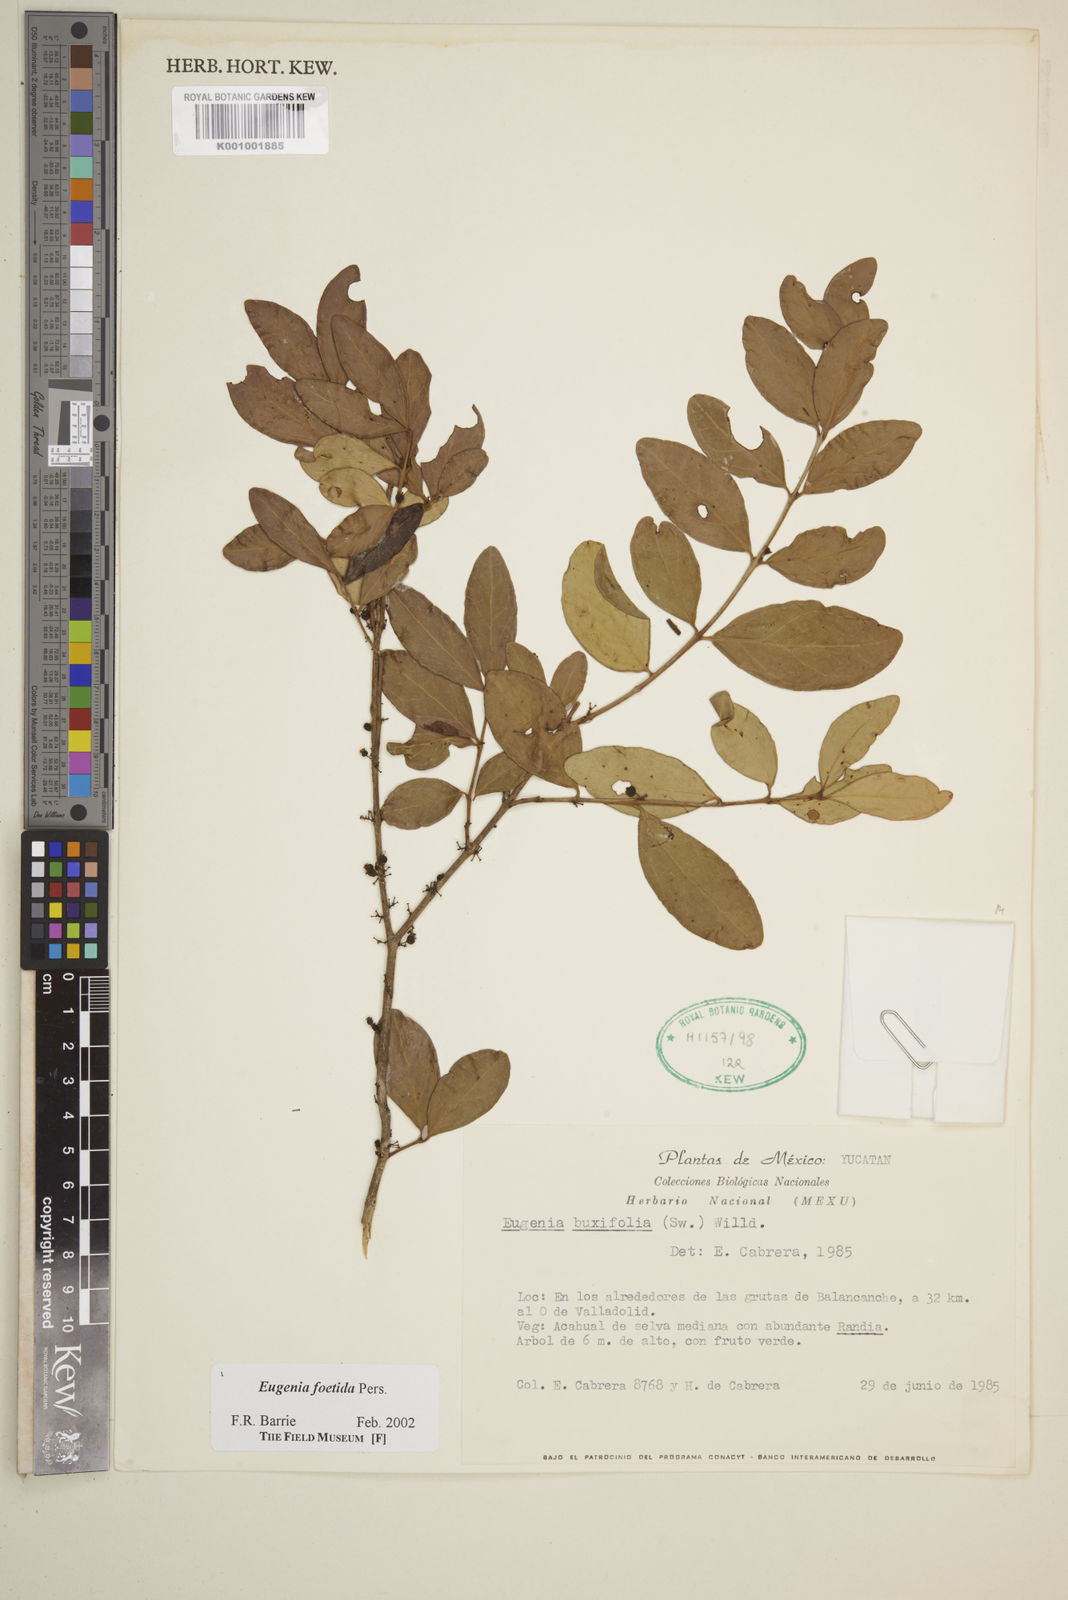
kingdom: Plantae
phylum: Tracheophyta
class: Magnoliopsida
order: Myrtales
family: Myrtaceae
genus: Eugenia
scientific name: Eugenia foetida
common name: White wattling
